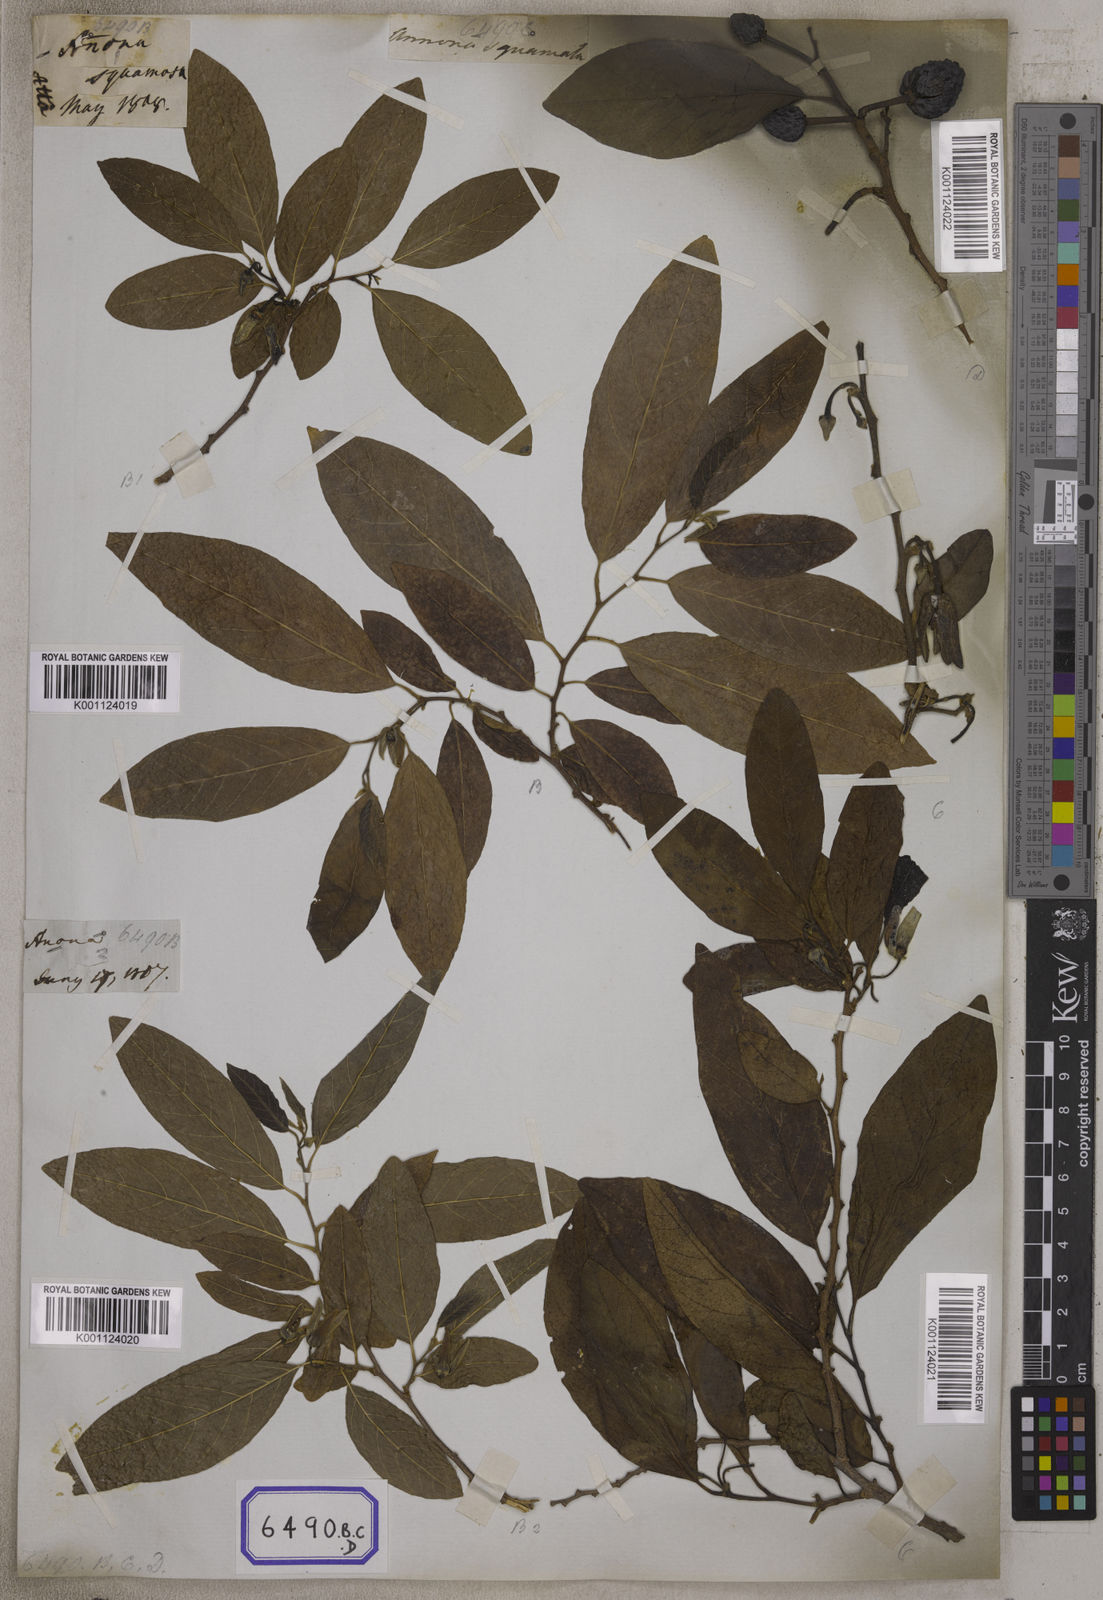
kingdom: Plantae
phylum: Tracheophyta
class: Magnoliopsida
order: Magnoliales
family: Annonaceae
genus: Annona
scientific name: Annona squamosa
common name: Custard-apple
